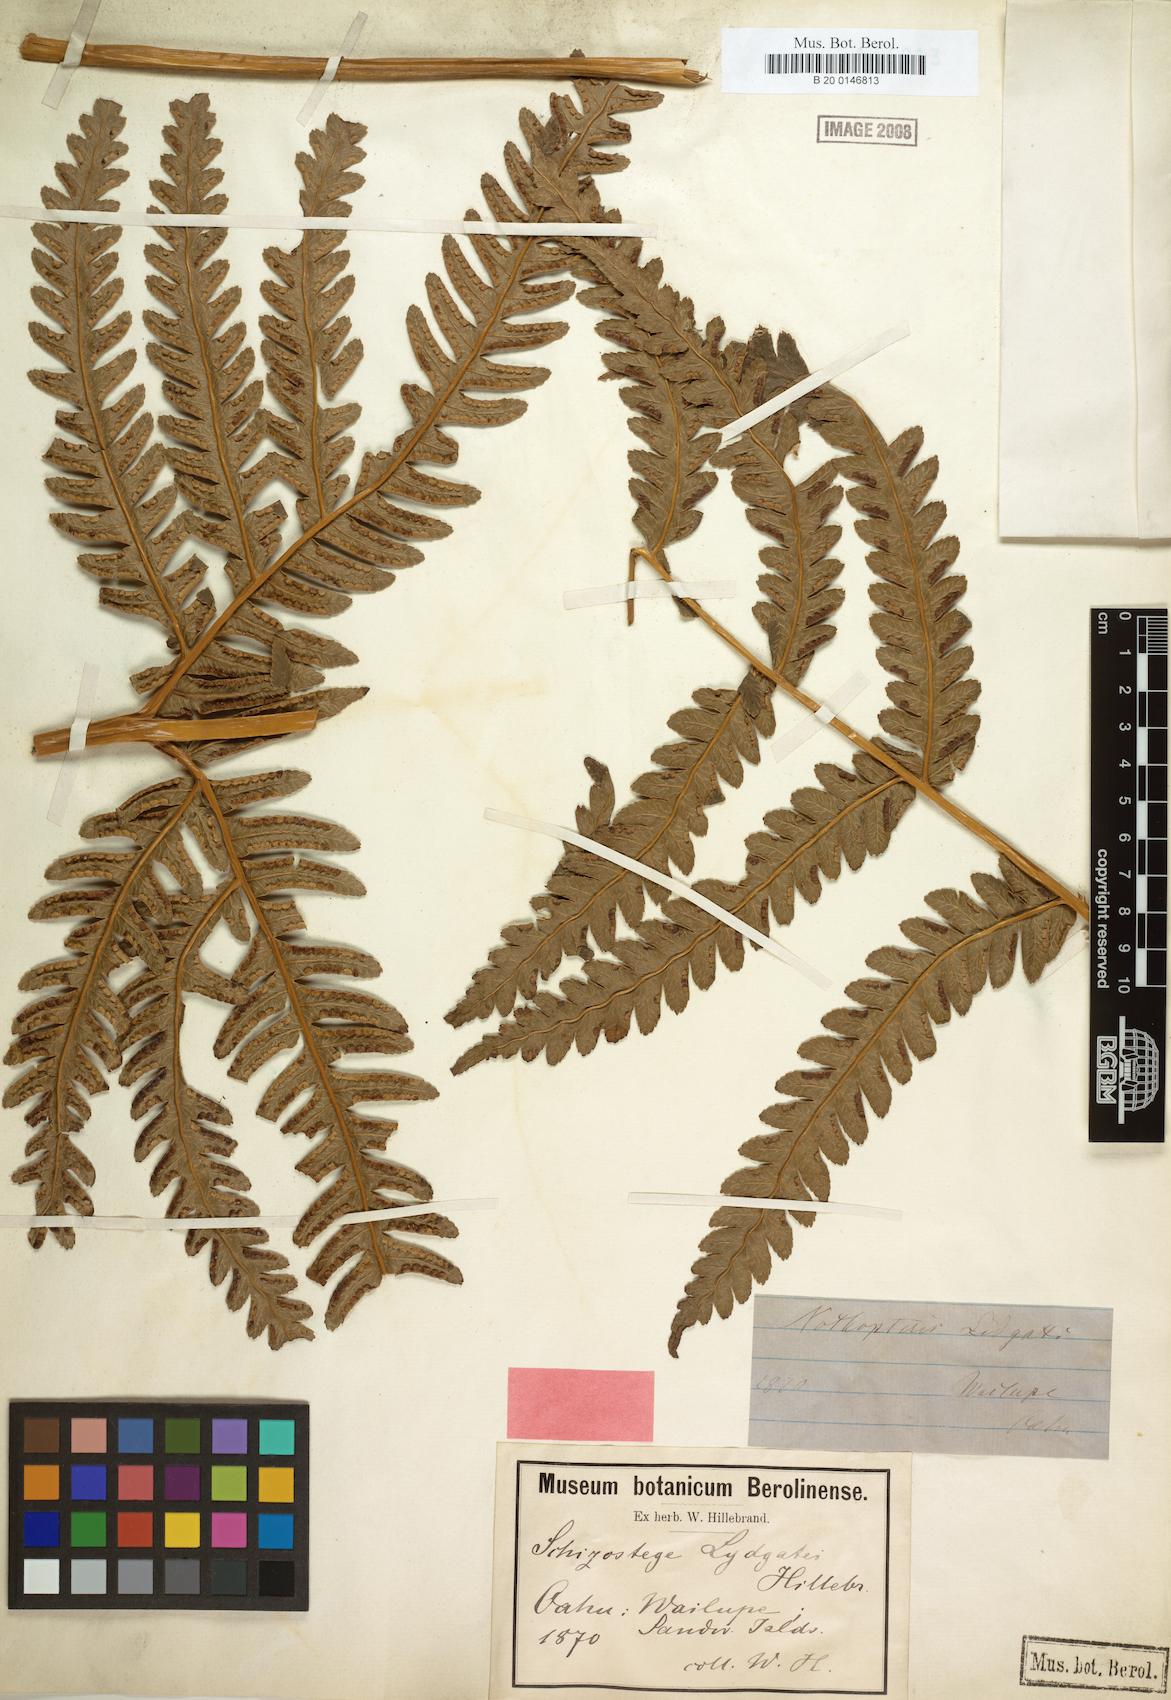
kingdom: Plantae
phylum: Tracheophyta
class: Polypodiopsida
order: Polypodiales
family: Pteridaceae
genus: Pteris
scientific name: Pteris lydgatei
